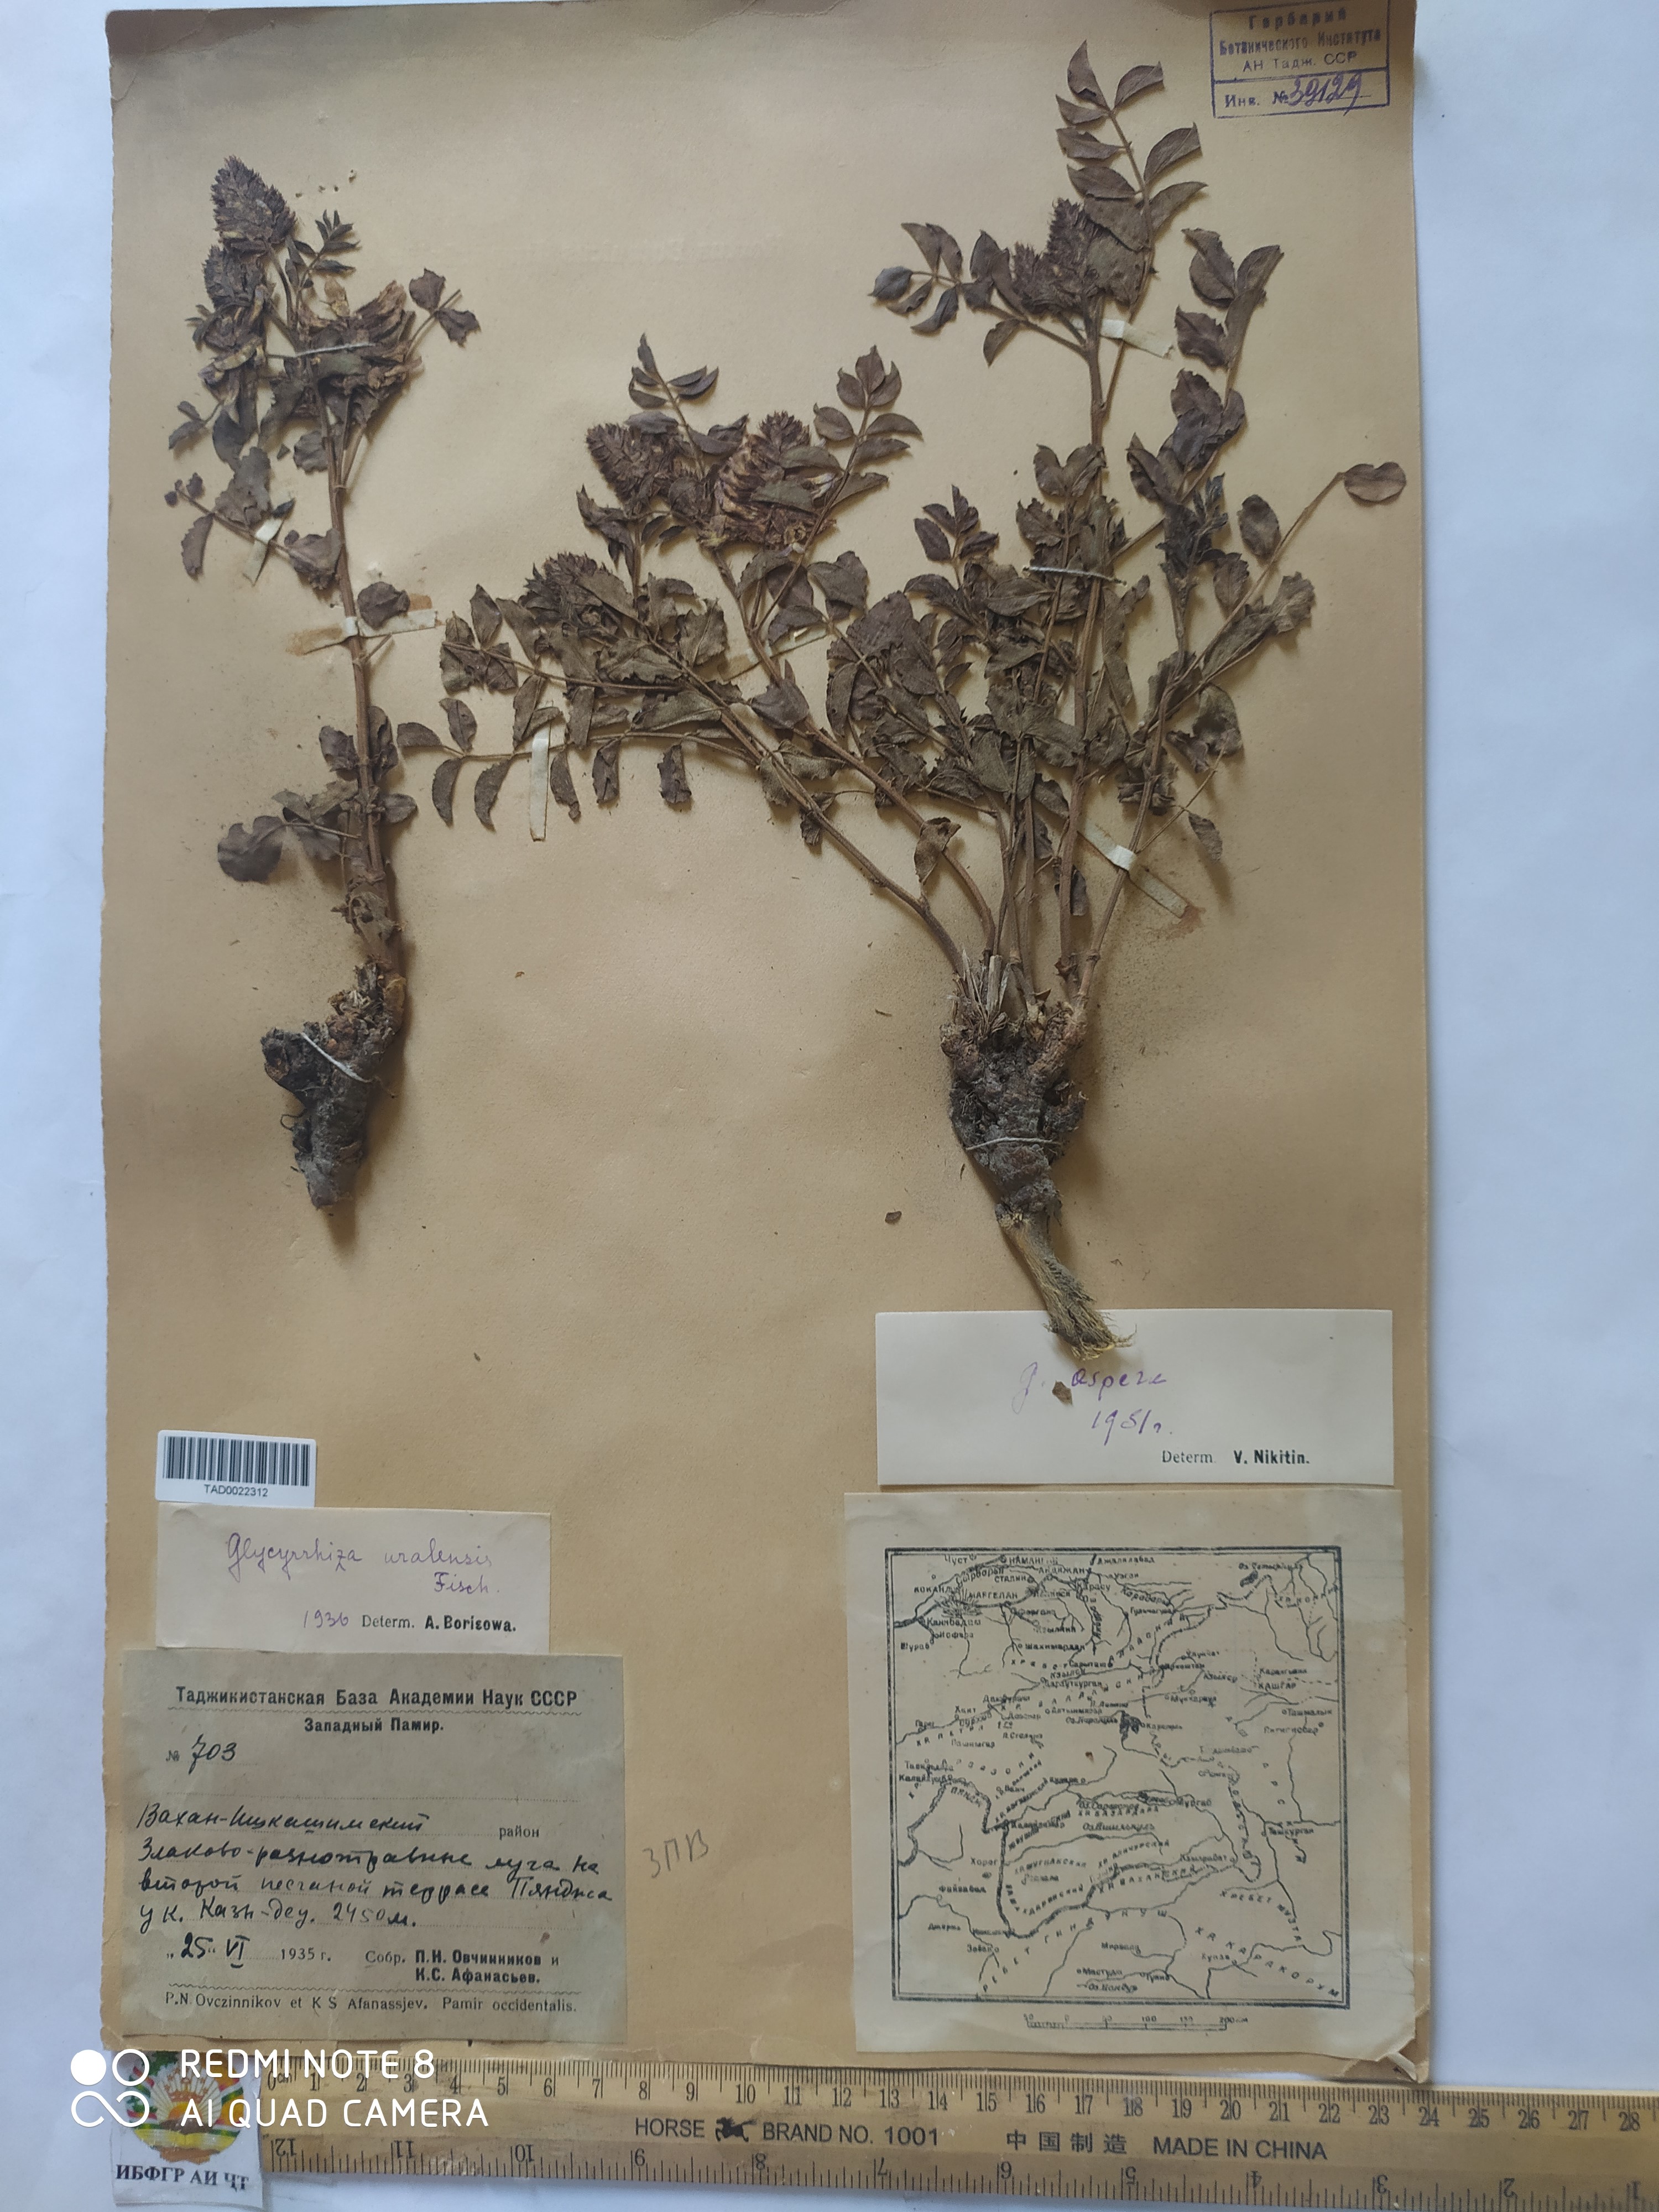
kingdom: Plantae
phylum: Tracheophyta
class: Magnoliopsida
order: Fabales
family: Fabaceae
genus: Glycyrrhiza
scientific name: Glycyrrhiza uralensis
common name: Chinese licorice
